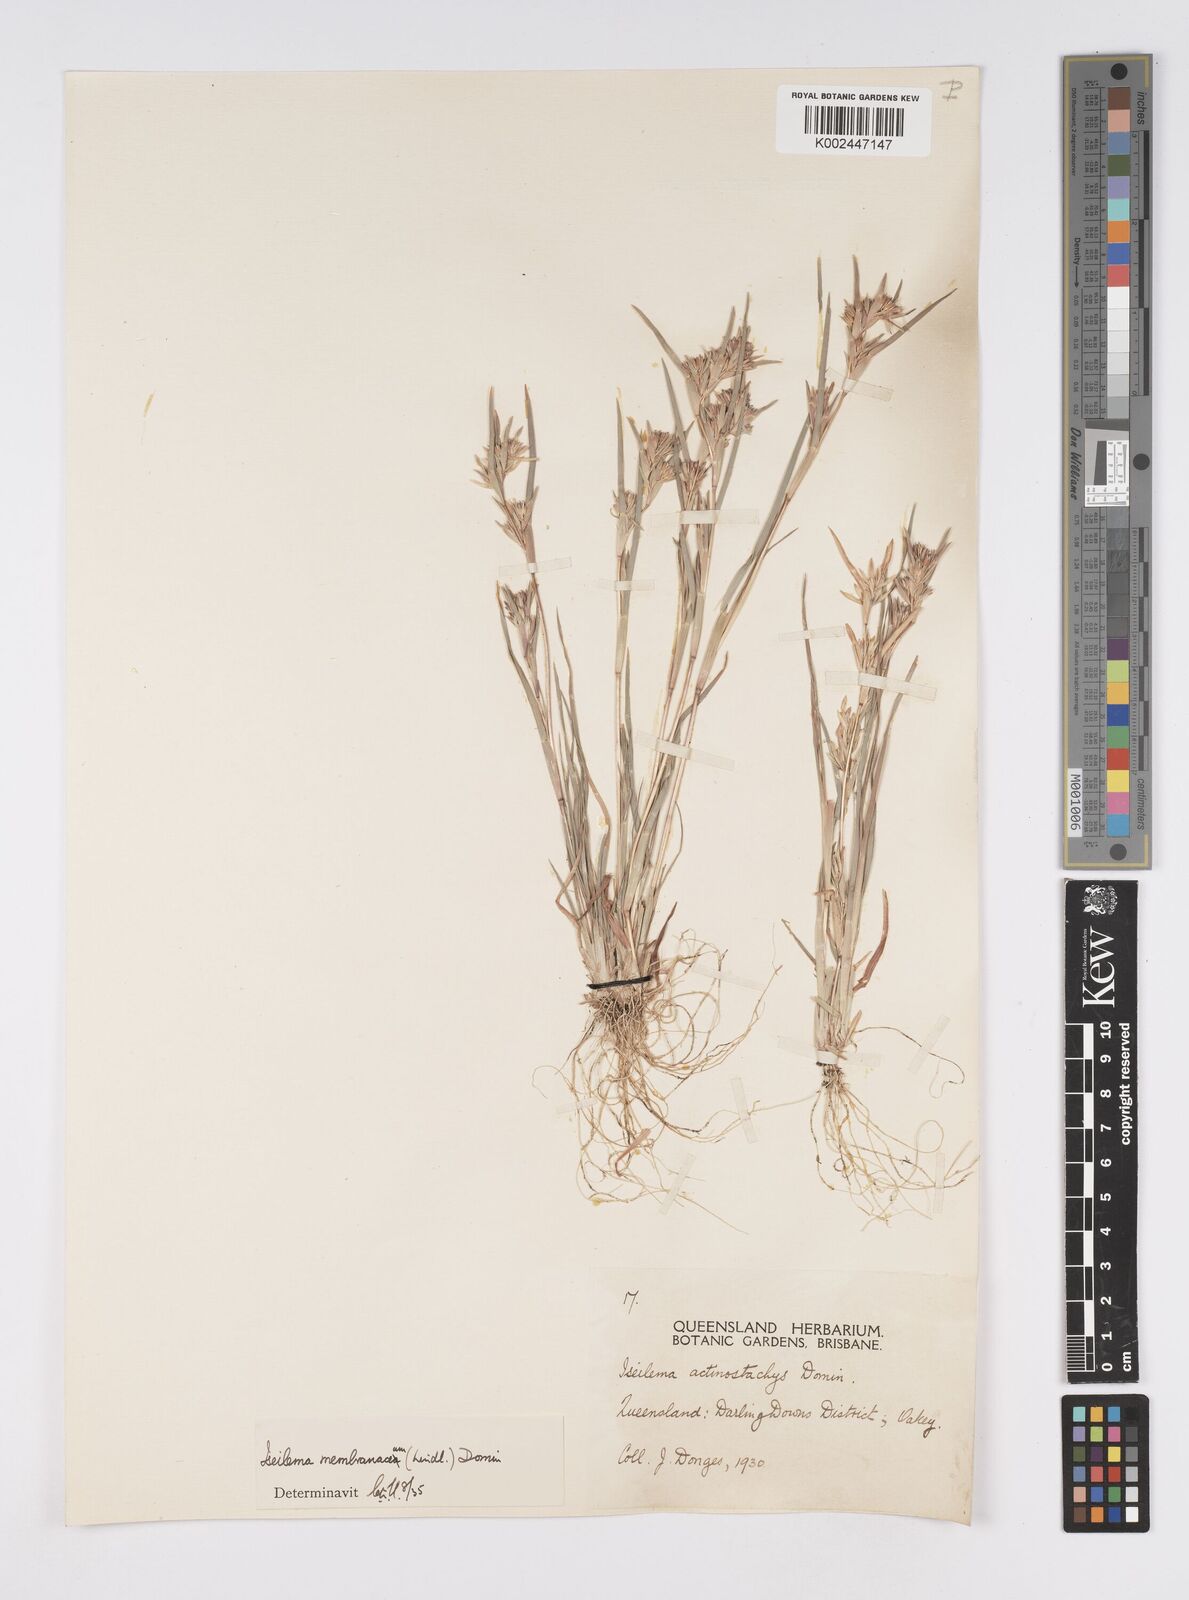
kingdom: Plantae
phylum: Tracheophyta
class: Liliopsida
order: Poales
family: Poaceae
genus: Iseilema
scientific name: Iseilema membranaceum
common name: Small flinders grass
